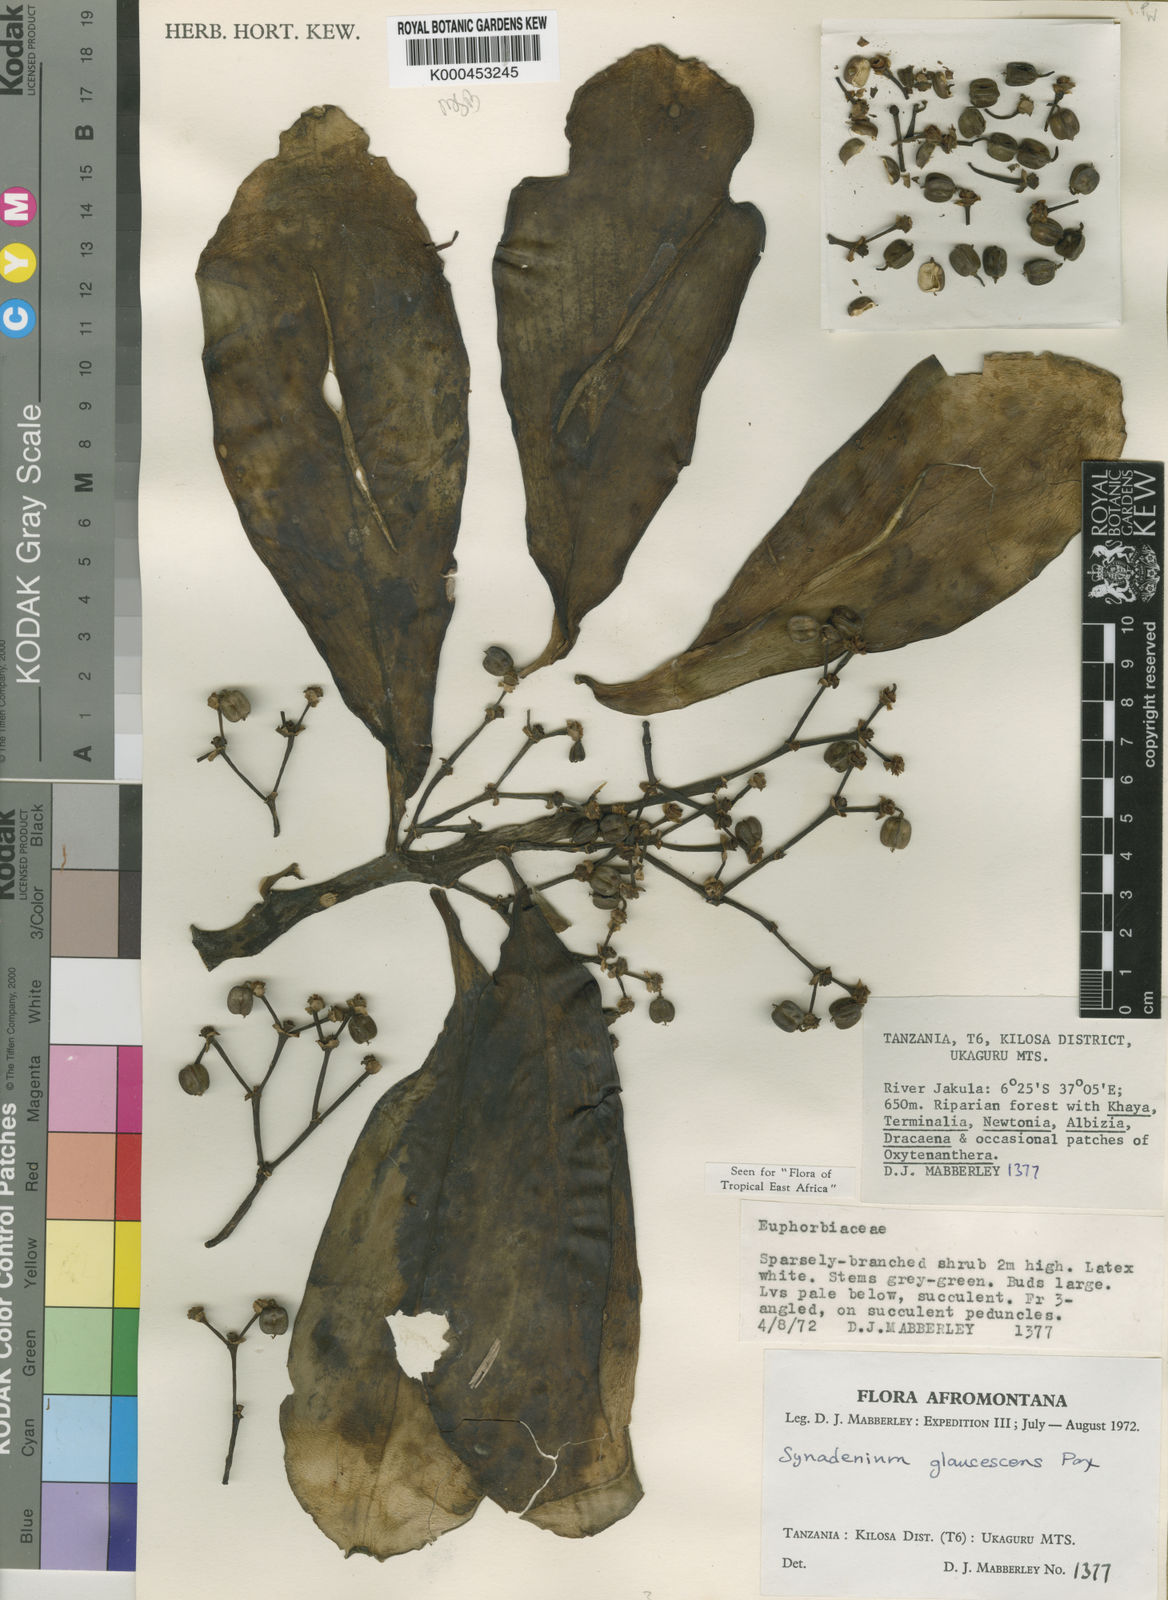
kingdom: Plantae
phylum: Tracheophyta
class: Magnoliopsida
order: Malpighiales
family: Euphorbiaceae
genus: Euphorbia
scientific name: Euphorbia neoglaucescens
